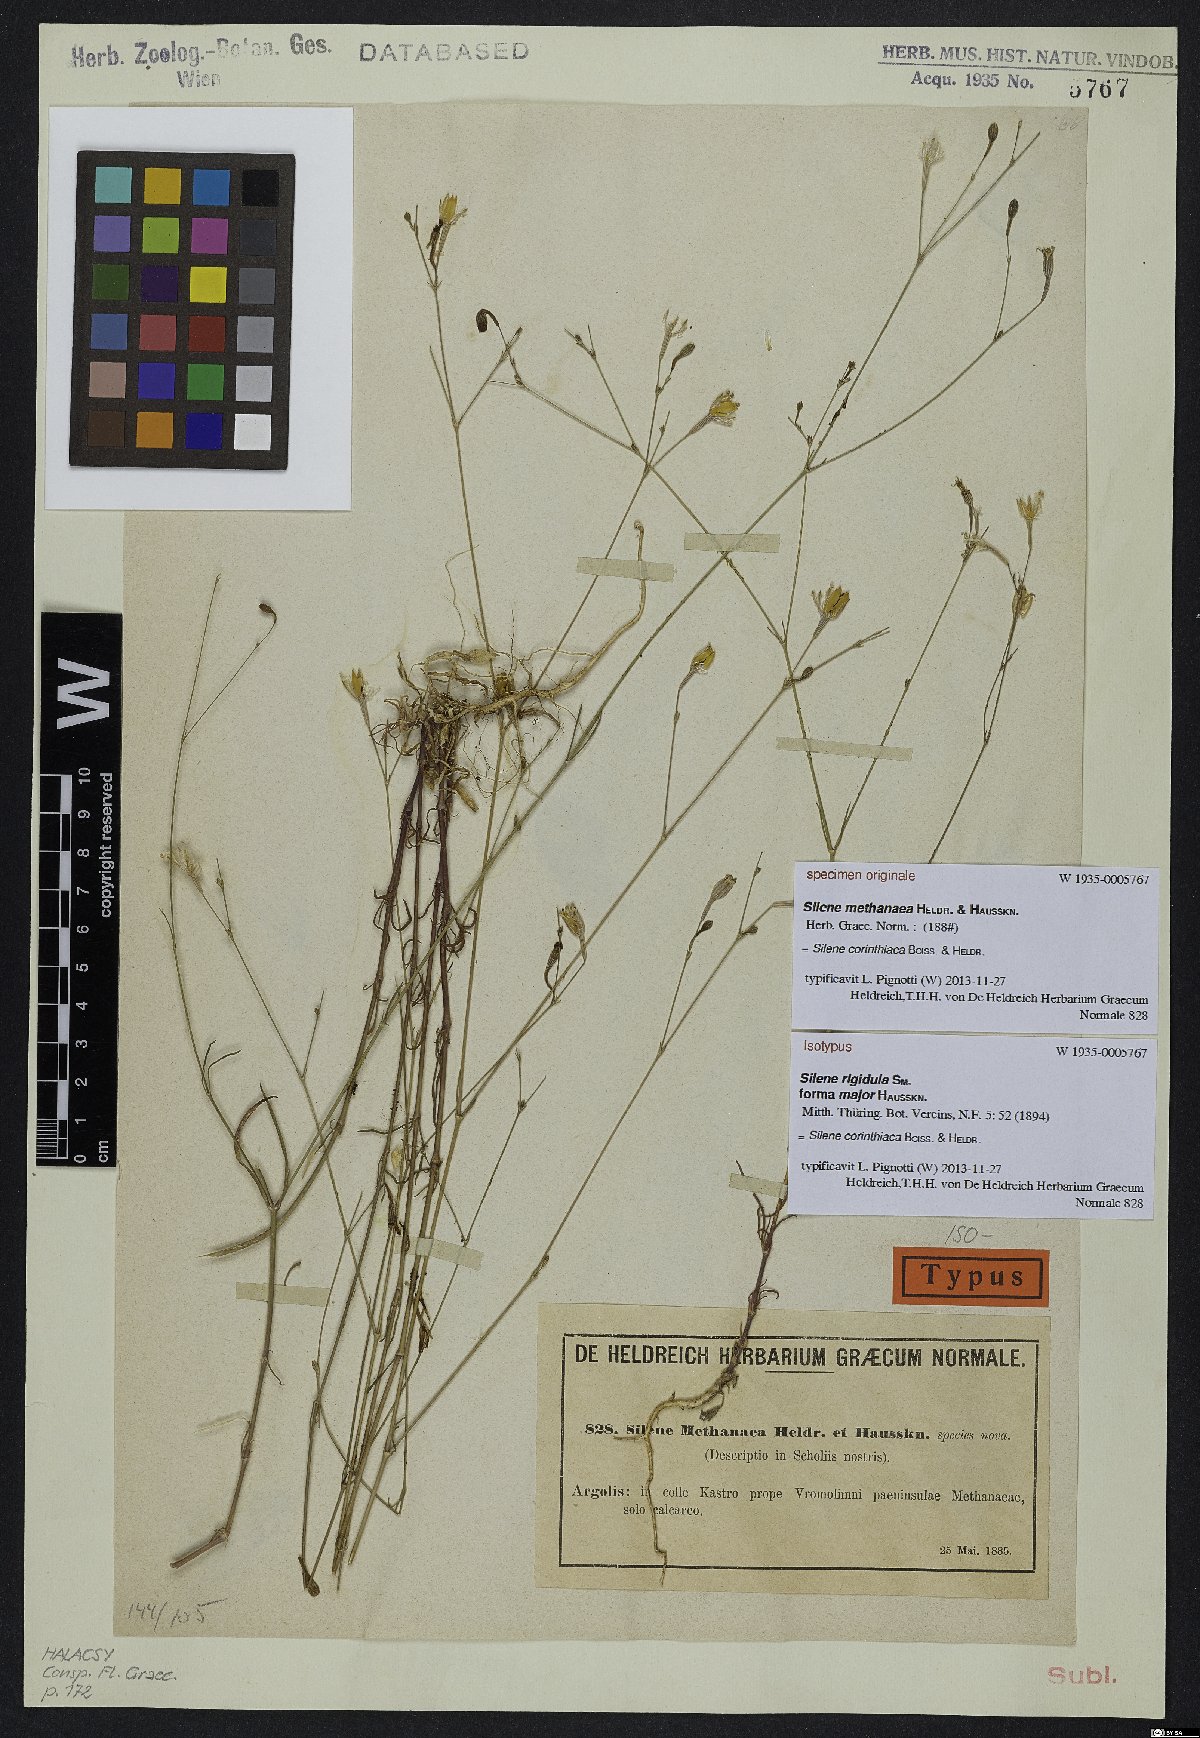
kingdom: Plantae
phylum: Tracheophyta
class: Magnoliopsida
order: Caryophyllales
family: Caryophyllaceae
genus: Silene
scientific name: Silene corinthiaca
